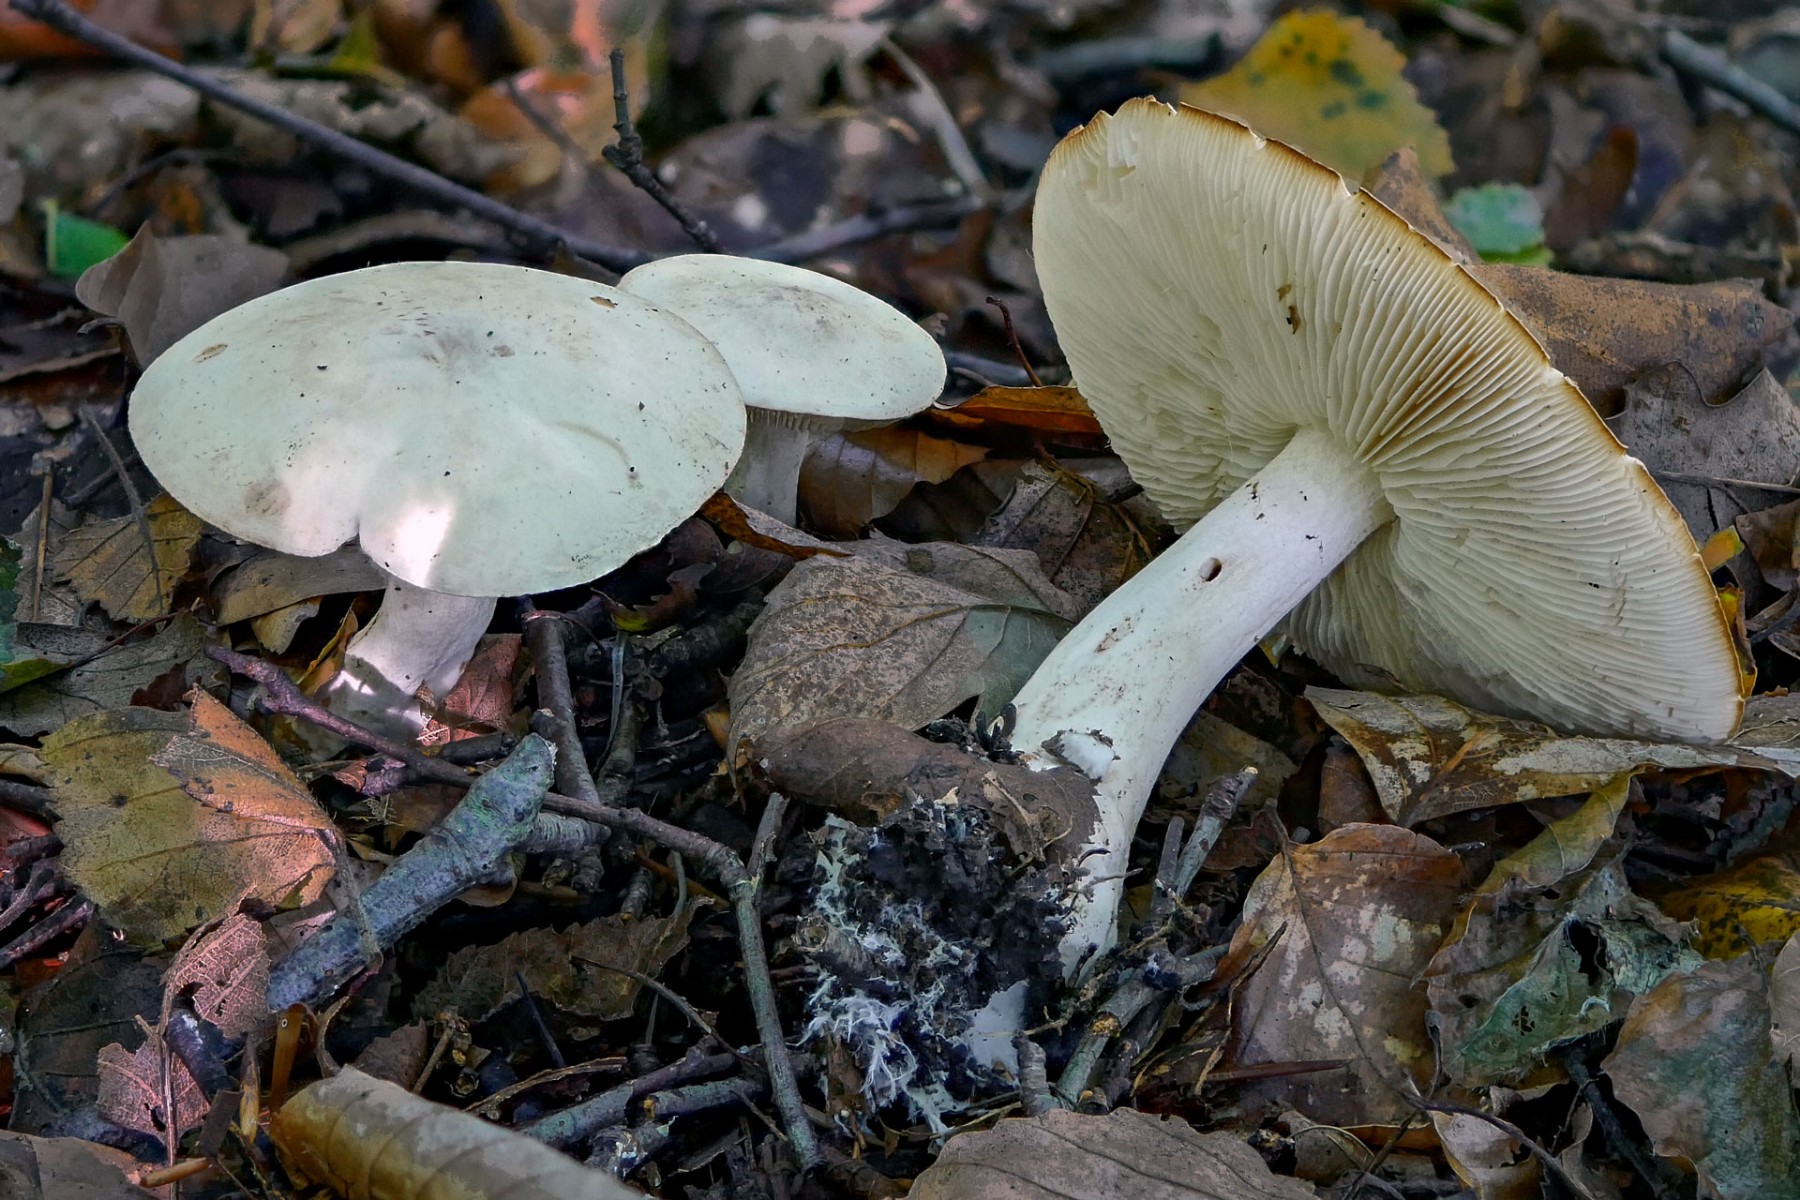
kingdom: Fungi
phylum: Basidiomycota
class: Agaricomycetes
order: Agaricales
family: Tricholomataceae
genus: Tricholoma
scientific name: Tricholoma stiparophyllum
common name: hvid ridderhat
